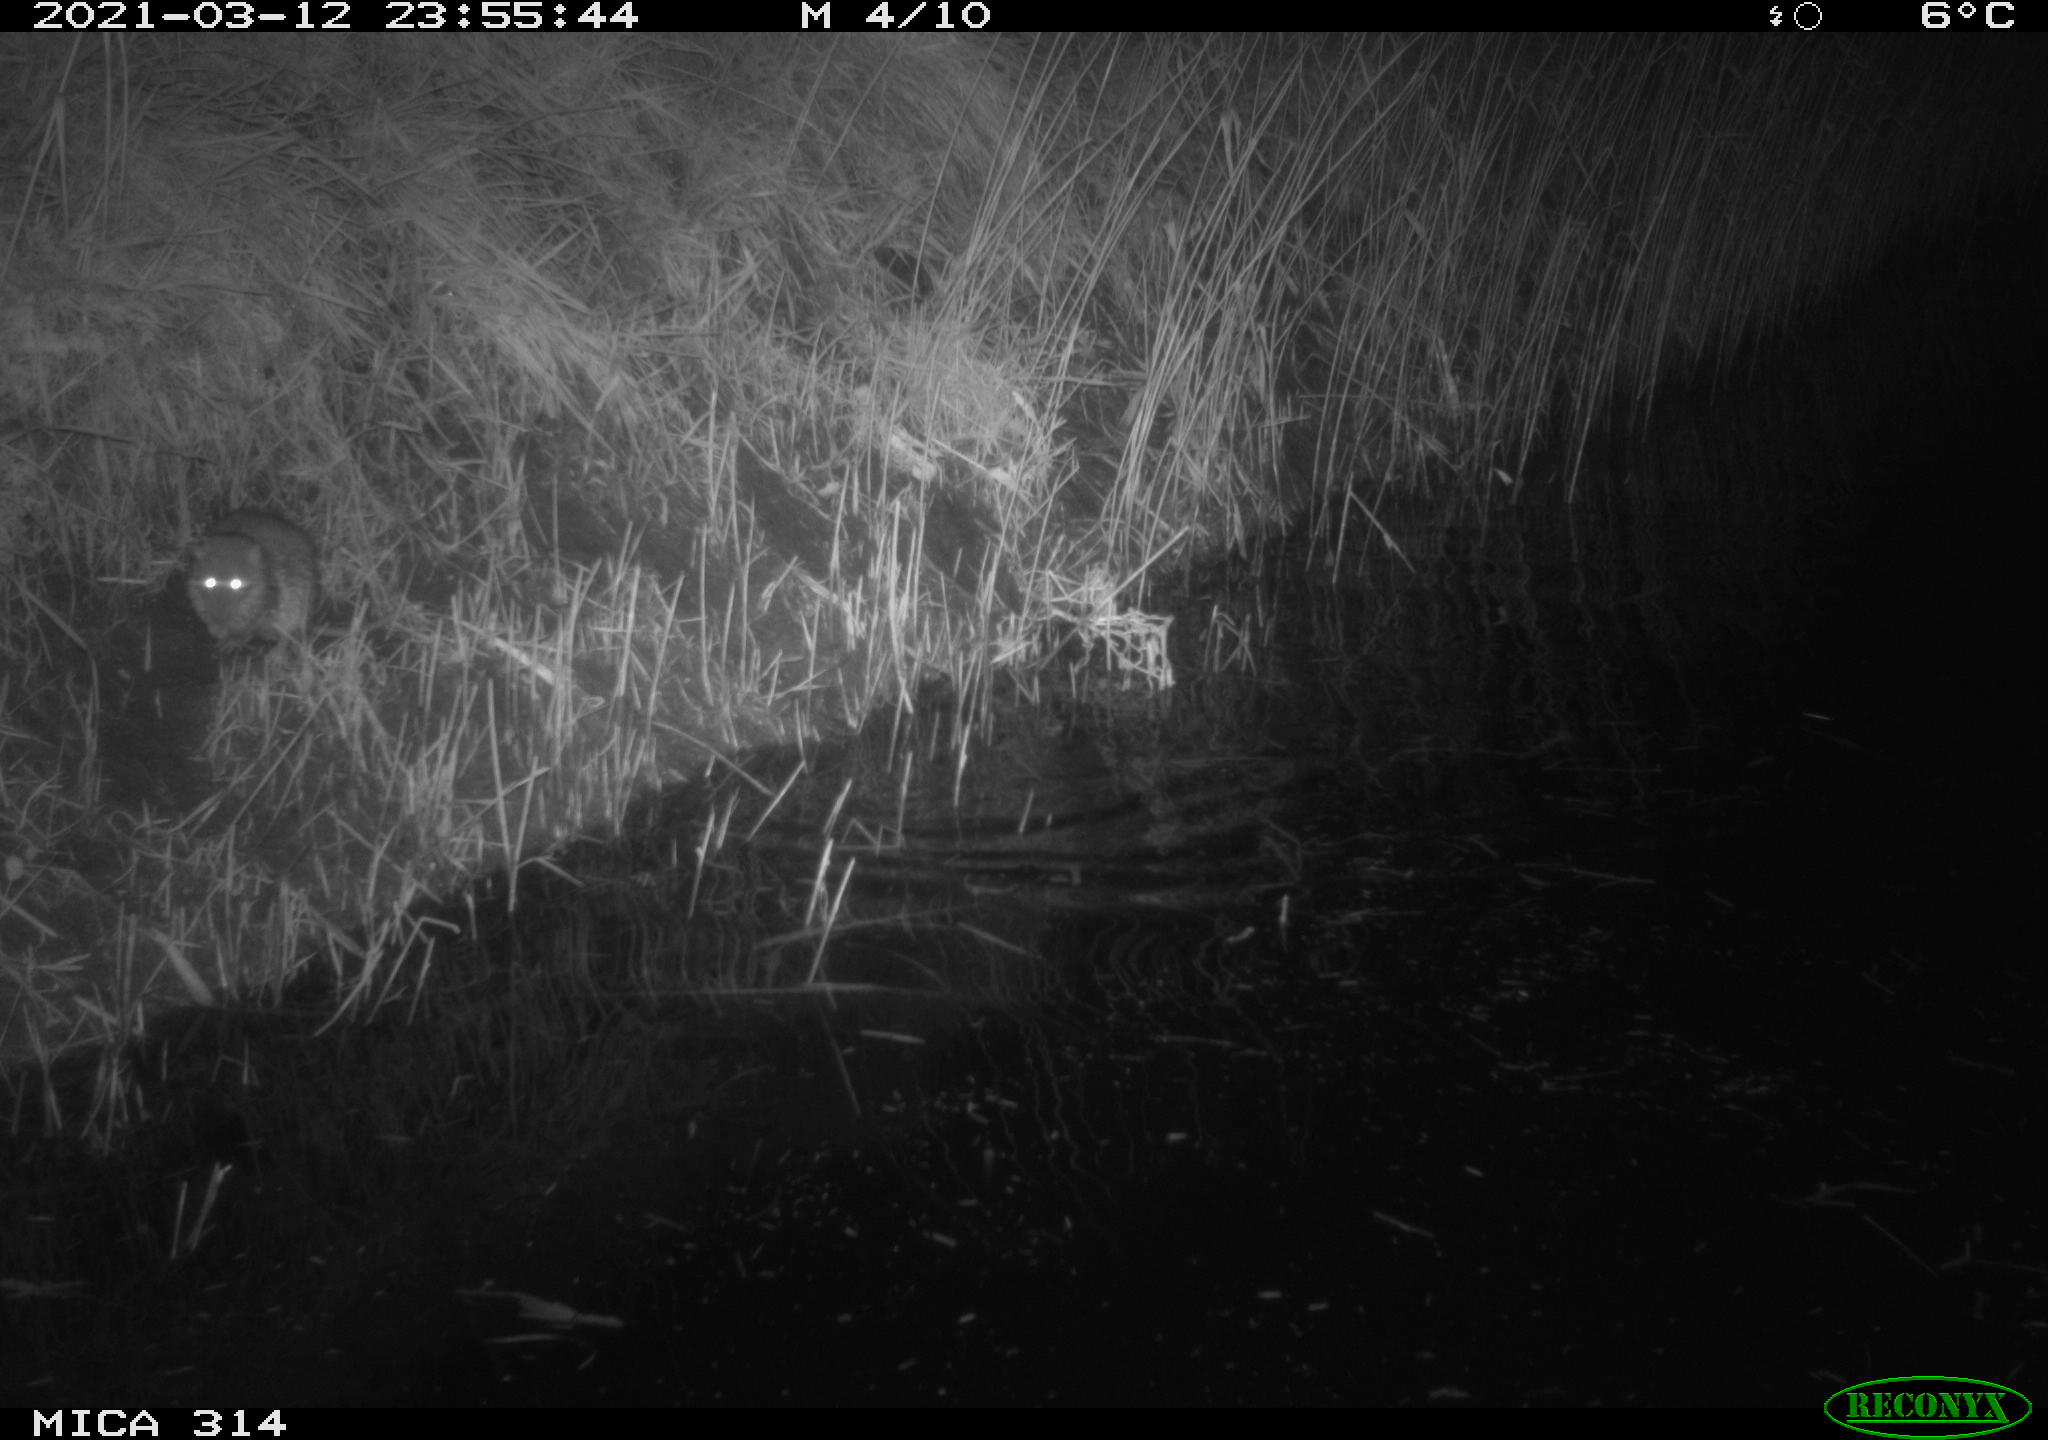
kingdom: Animalia
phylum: Chordata
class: Mammalia
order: Rodentia
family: Muridae
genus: Rattus
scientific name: Rattus norvegicus
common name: Brown rat
